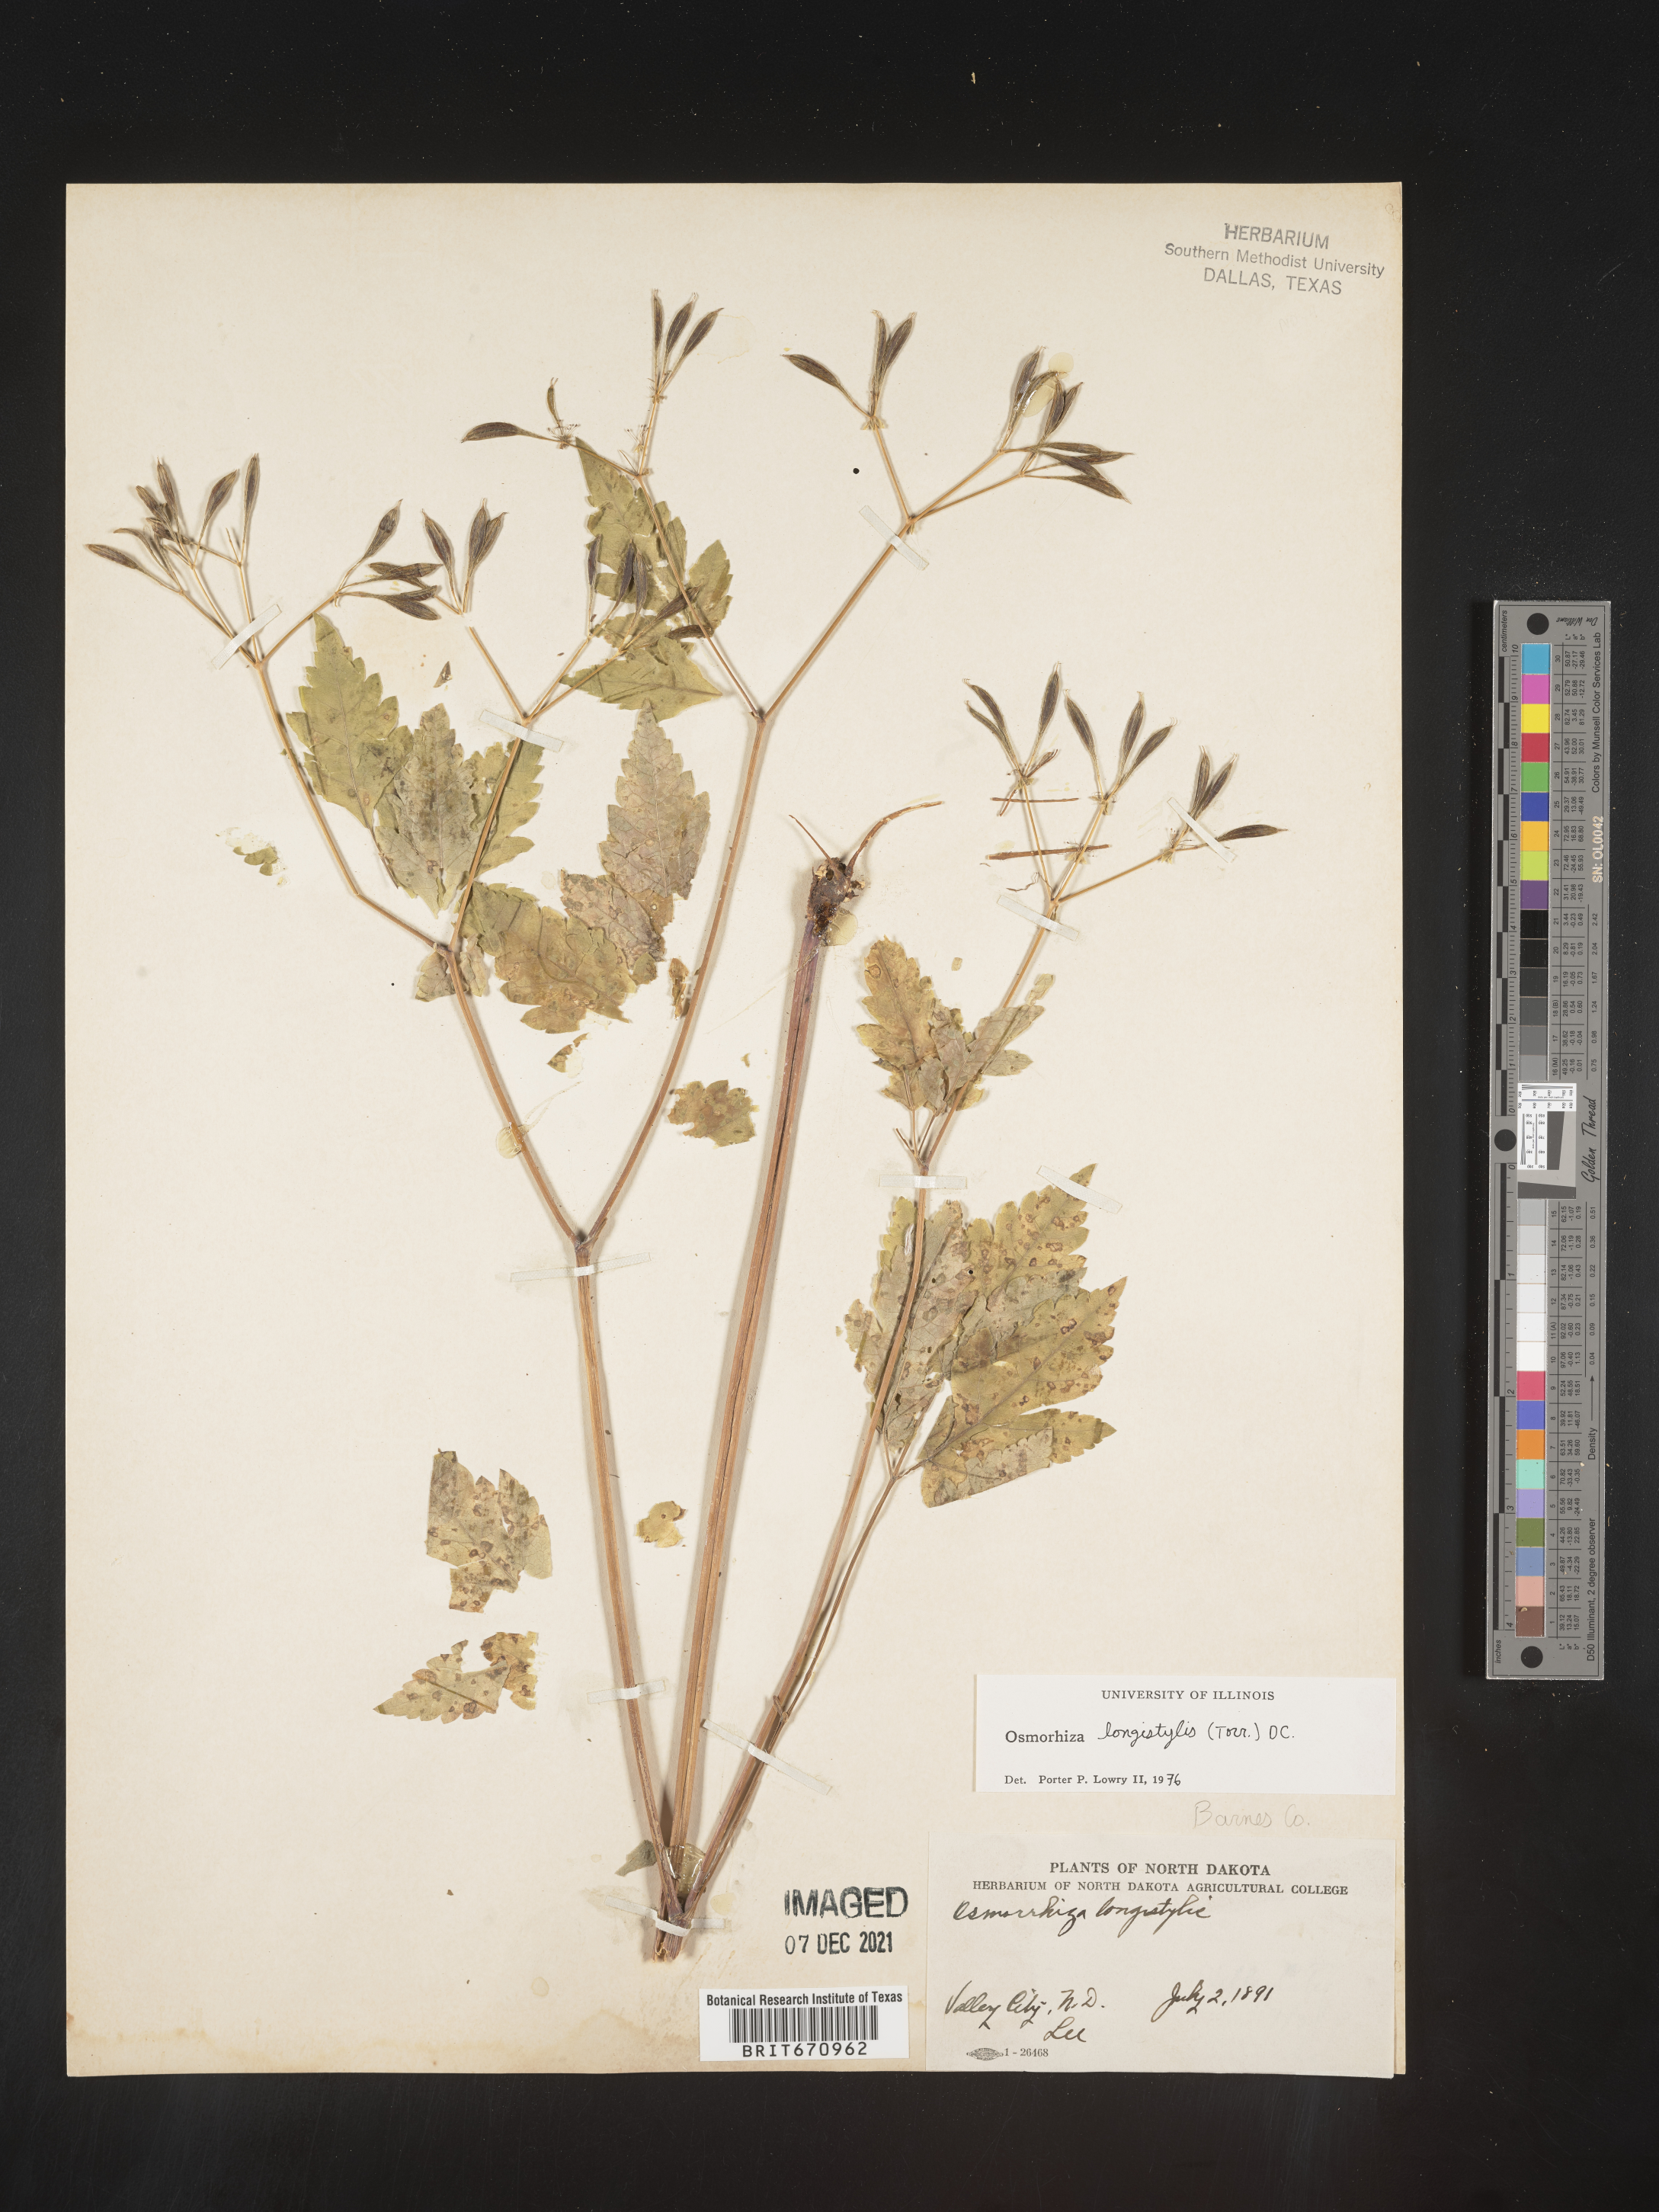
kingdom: Plantae
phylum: Tracheophyta
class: Magnoliopsida
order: Apiales
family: Apiaceae
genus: Osmorhiza
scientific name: Osmorhiza longistylis
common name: Smooth sweet cicely
